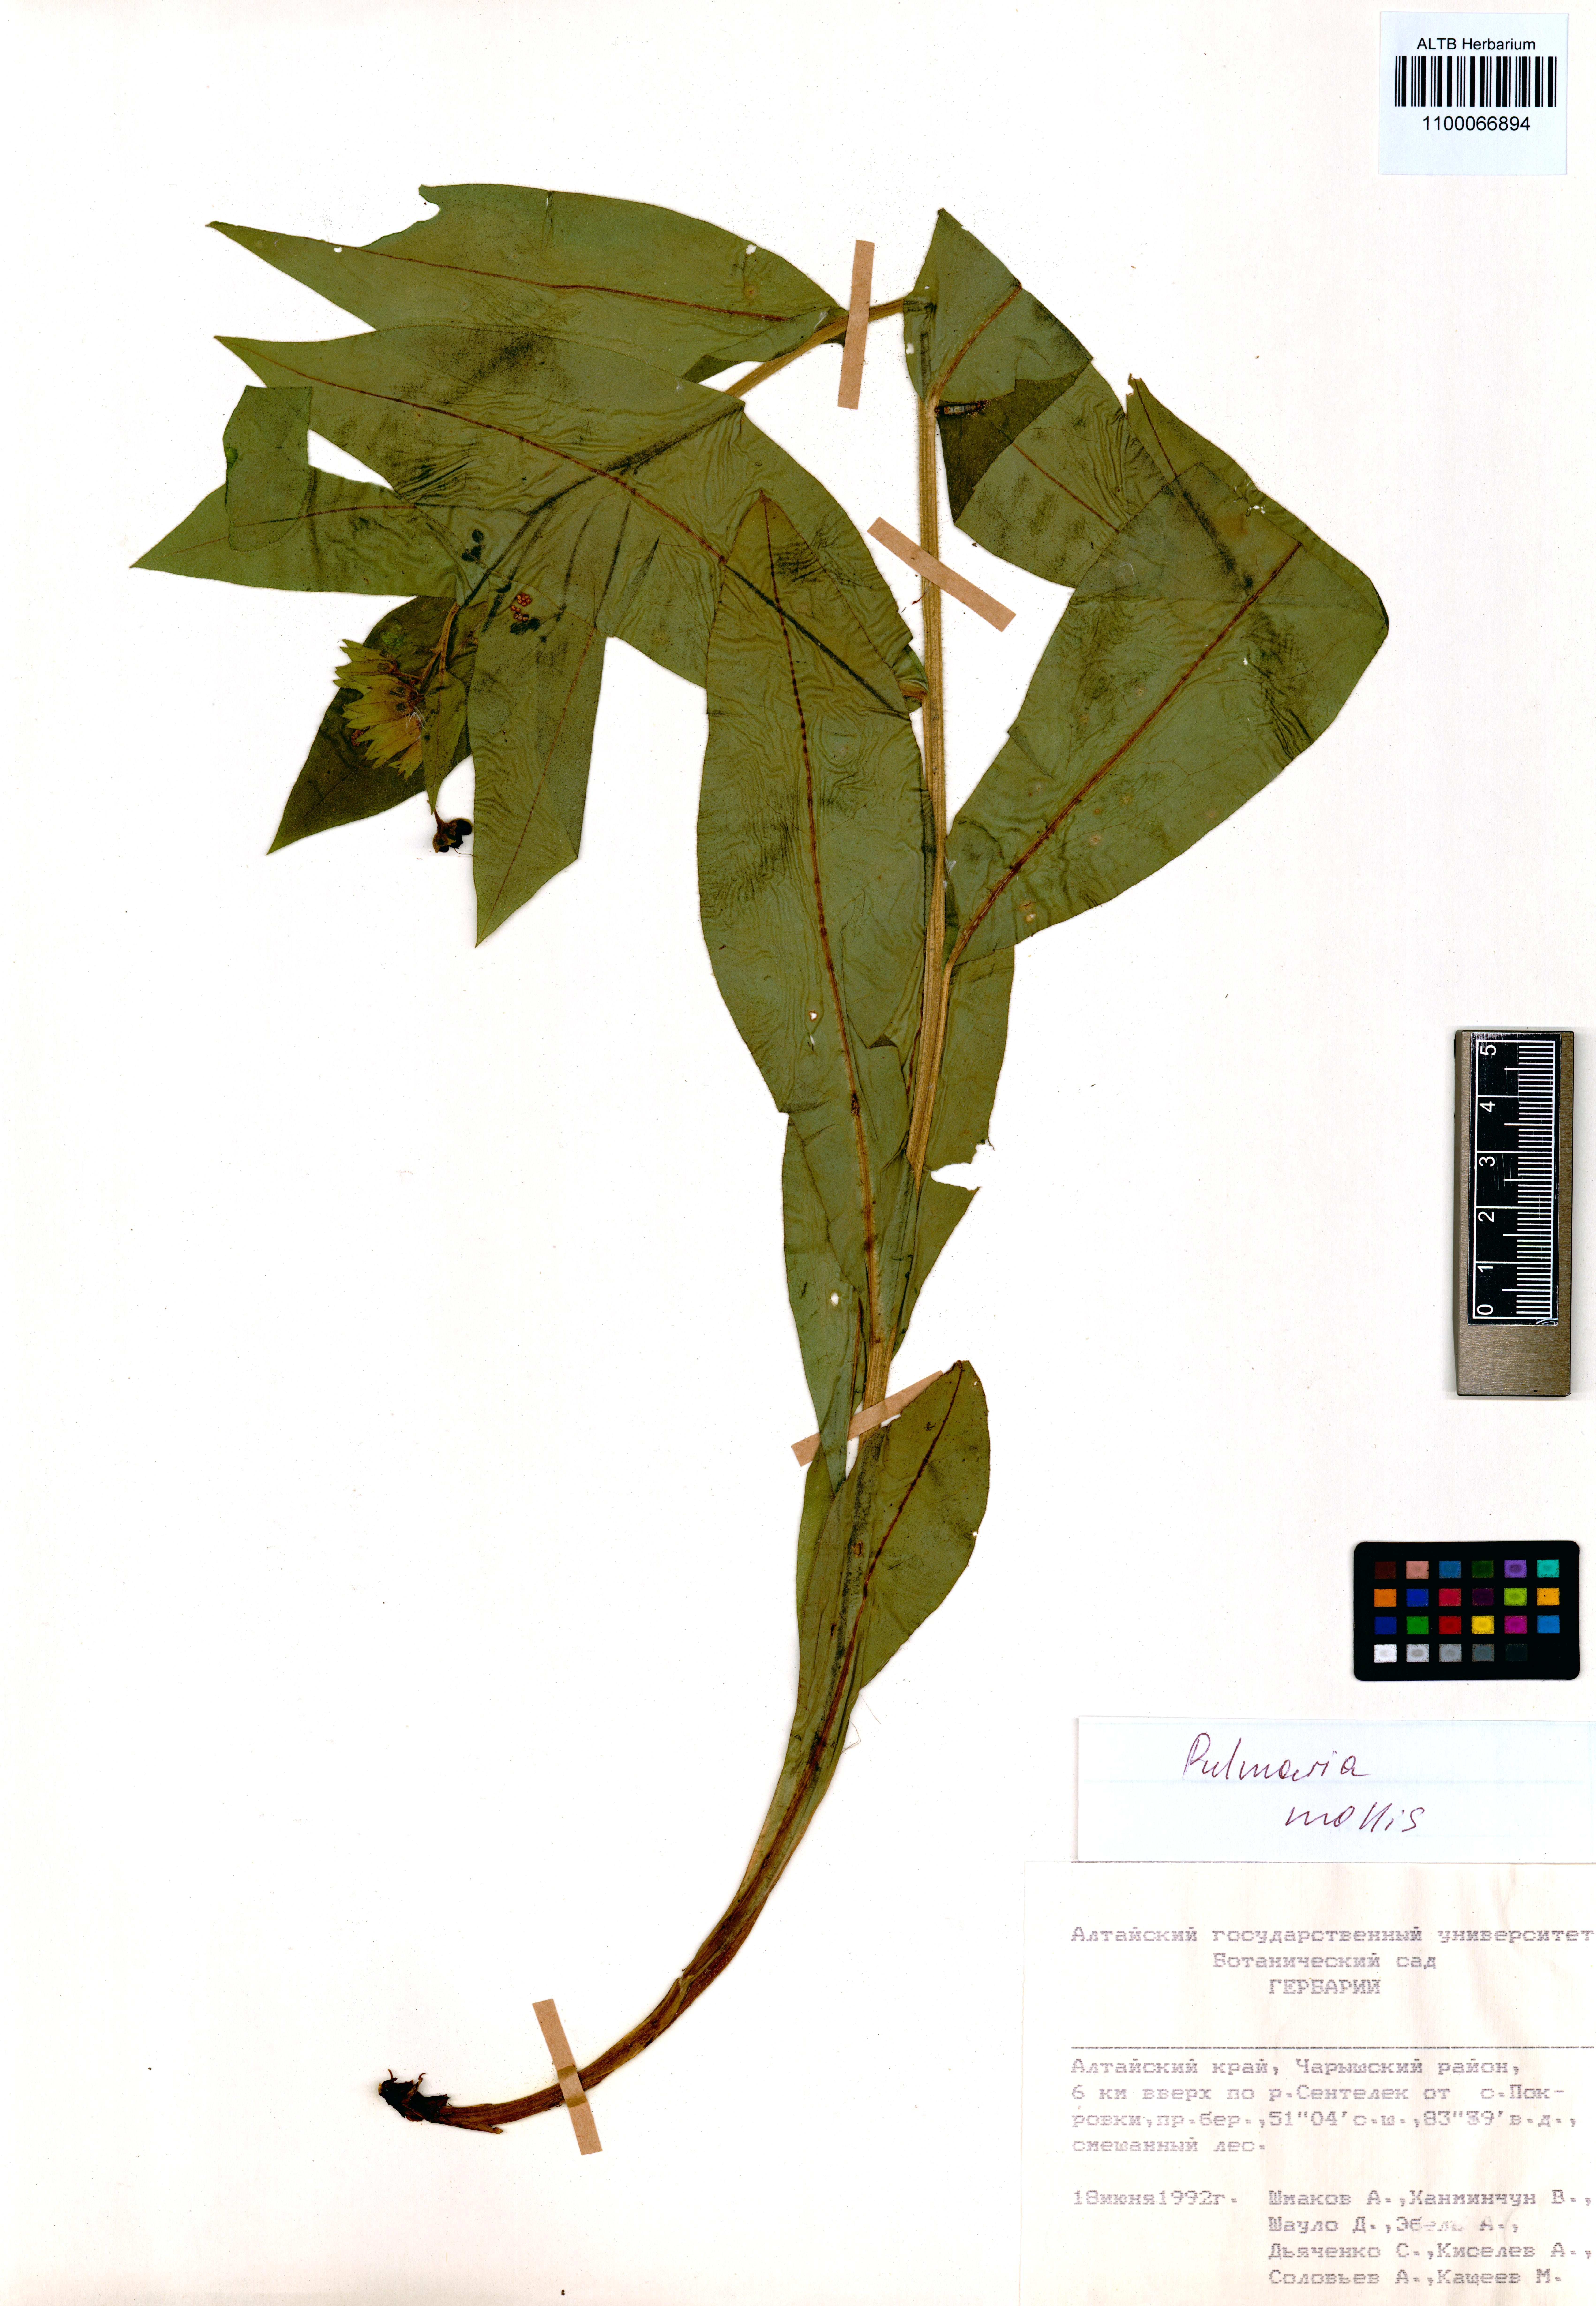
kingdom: Plantae
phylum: Tracheophyta
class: Magnoliopsida
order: Boraginales
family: Boraginaceae
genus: Pulmonaria
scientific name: Pulmonaria mollis
